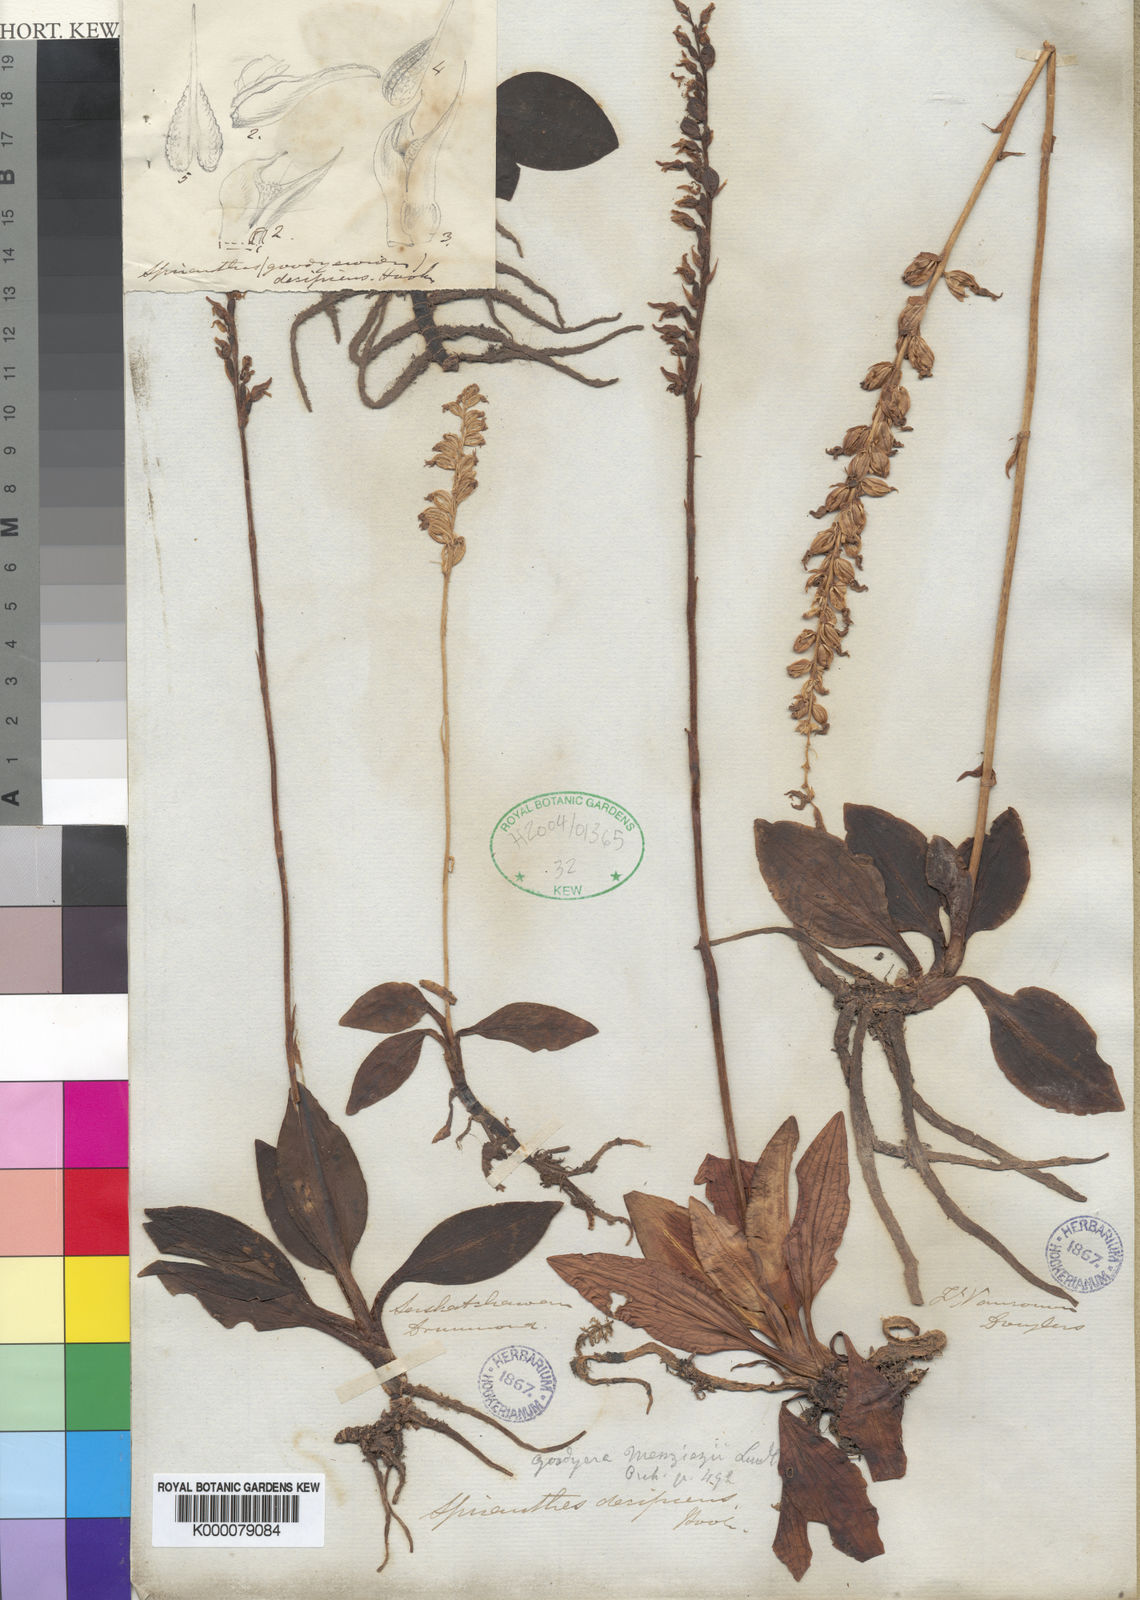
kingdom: Plantae
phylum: Tracheophyta
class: Liliopsida
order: Asparagales
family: Orchidaceae
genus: Goodyera
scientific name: Goodyera oblongifolia
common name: Giant rattlesnake-plantain
